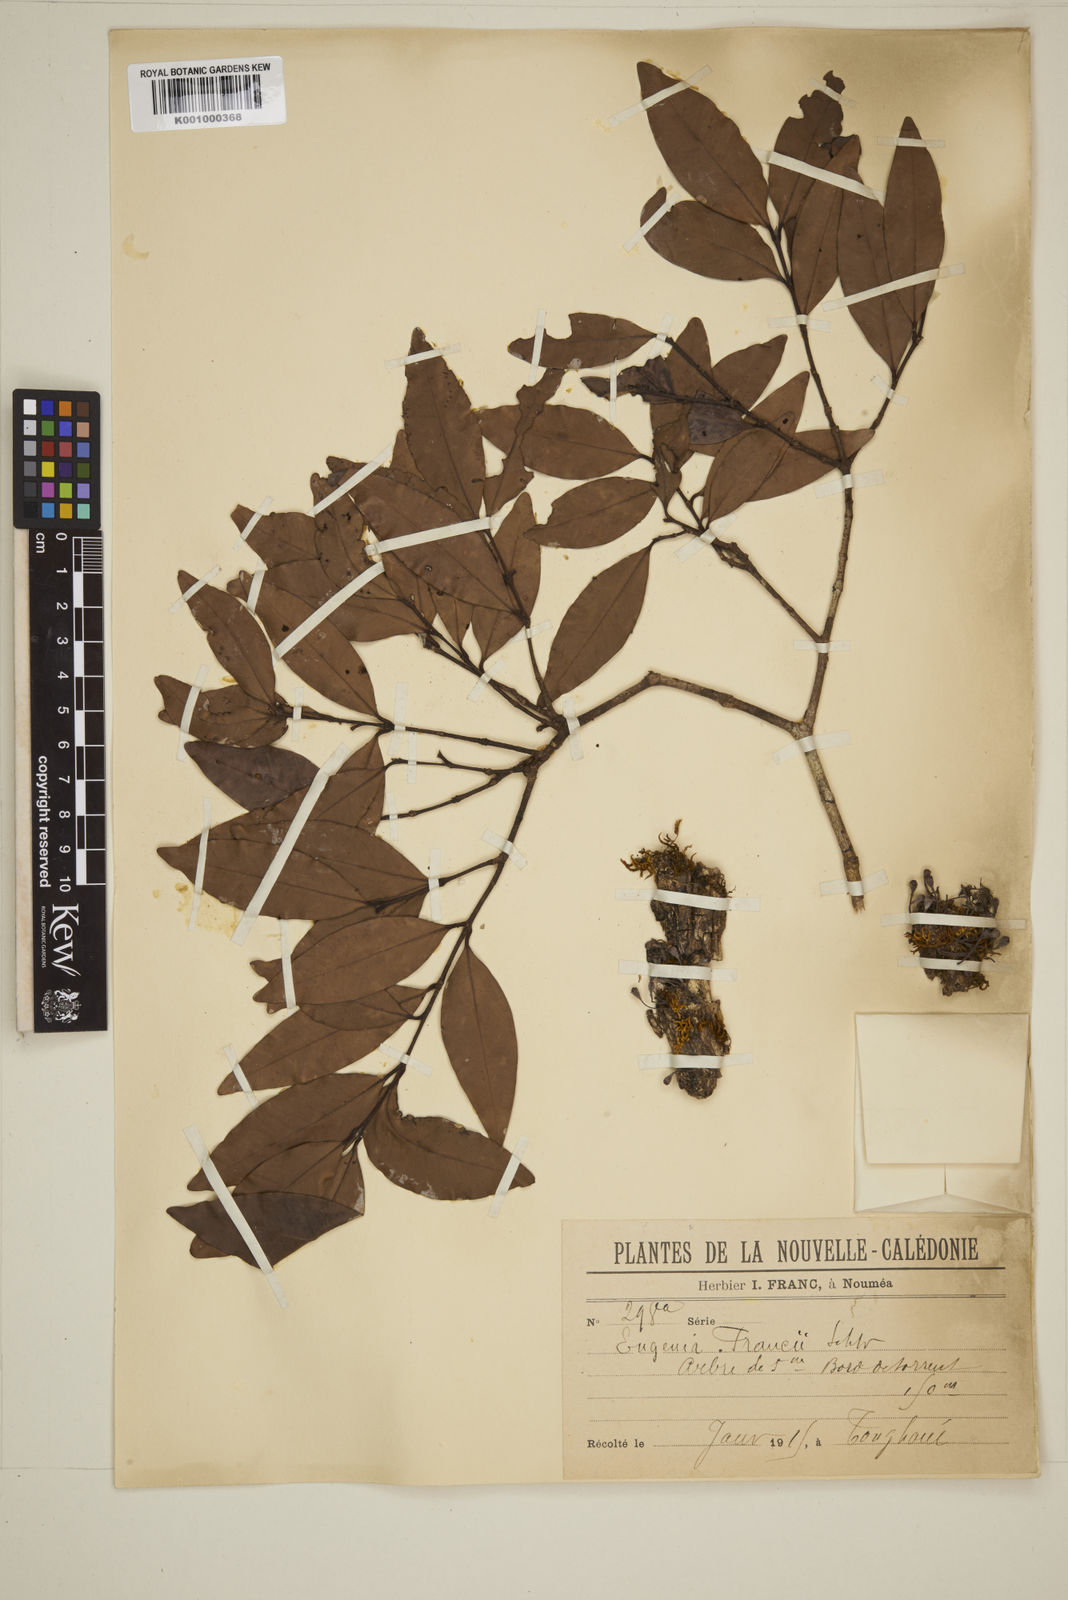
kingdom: Plantae
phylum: Tracheophyta
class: Magnoliopsida
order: Myrtales
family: Myrtaceae
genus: Eugenia
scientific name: Eugenia
